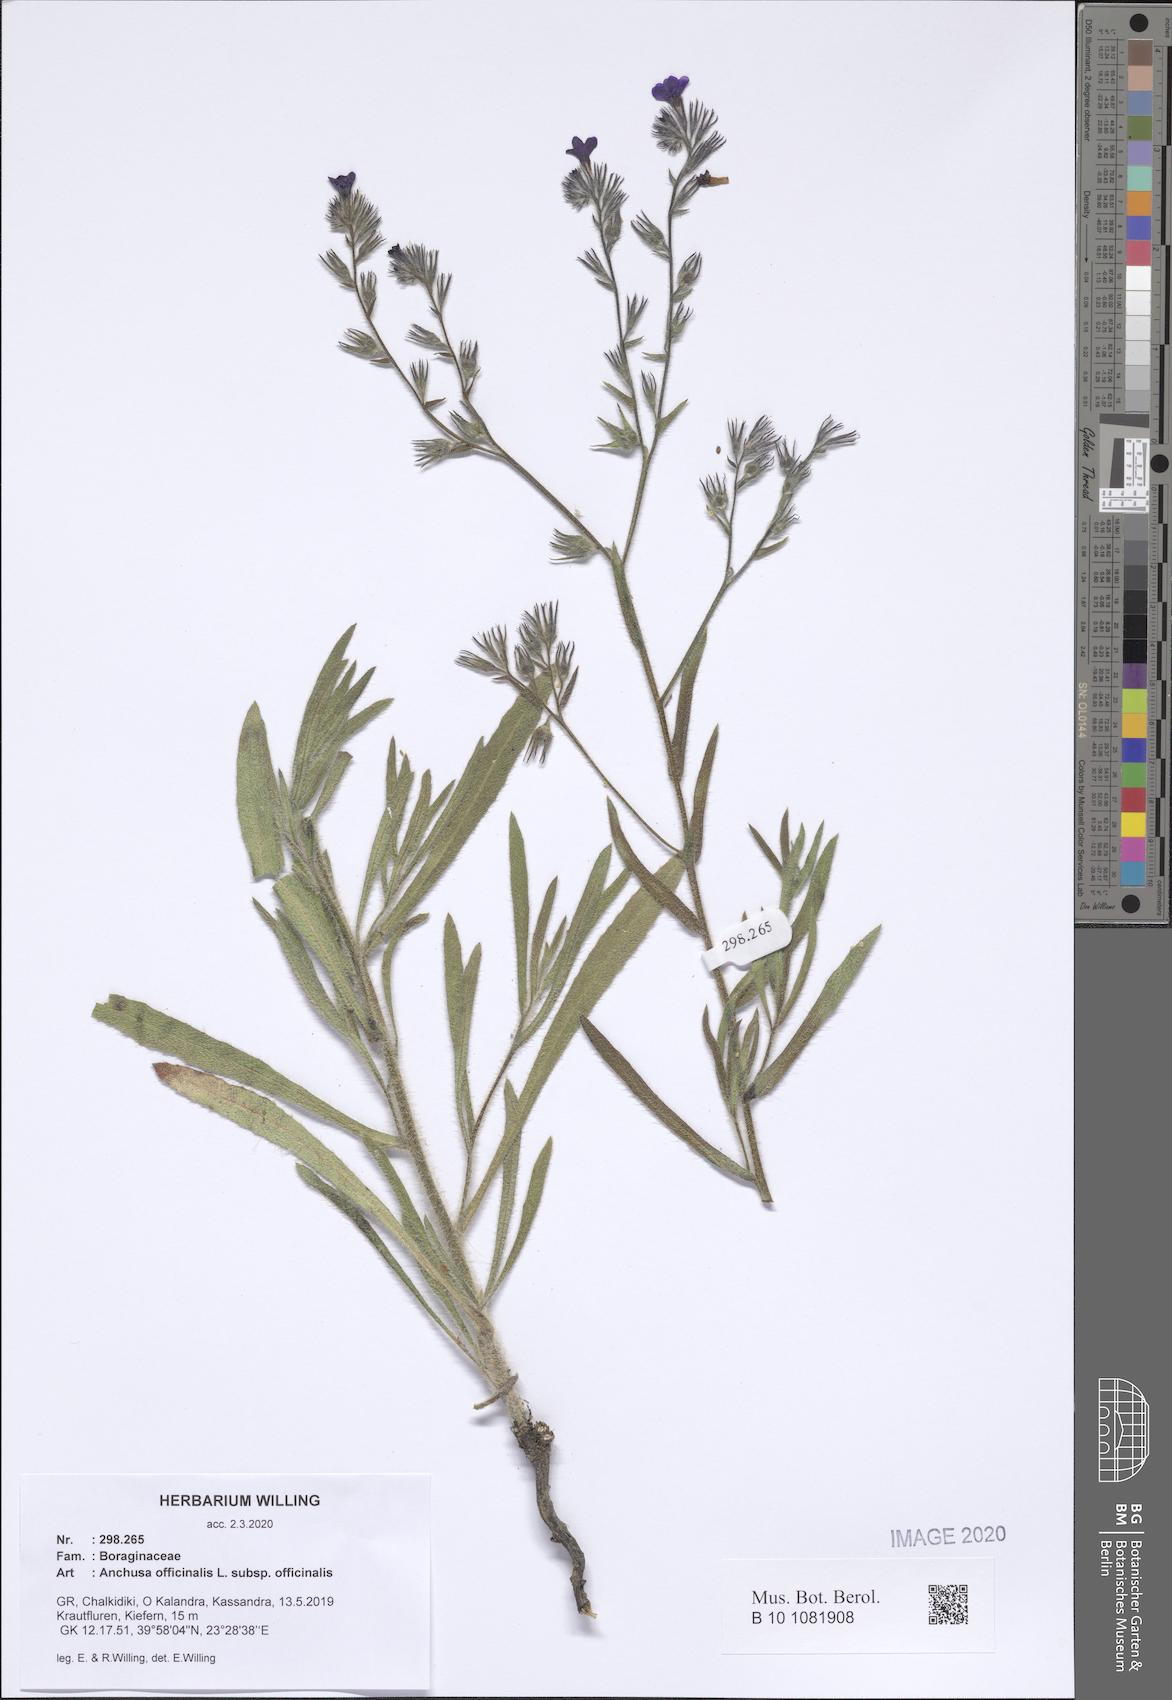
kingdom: Plantae
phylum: Tracheophyta
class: Magnoliopsida
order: Boraginales
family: Boraginaceae
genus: Anchusa
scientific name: Anchusa officinalis
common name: Alkanet
